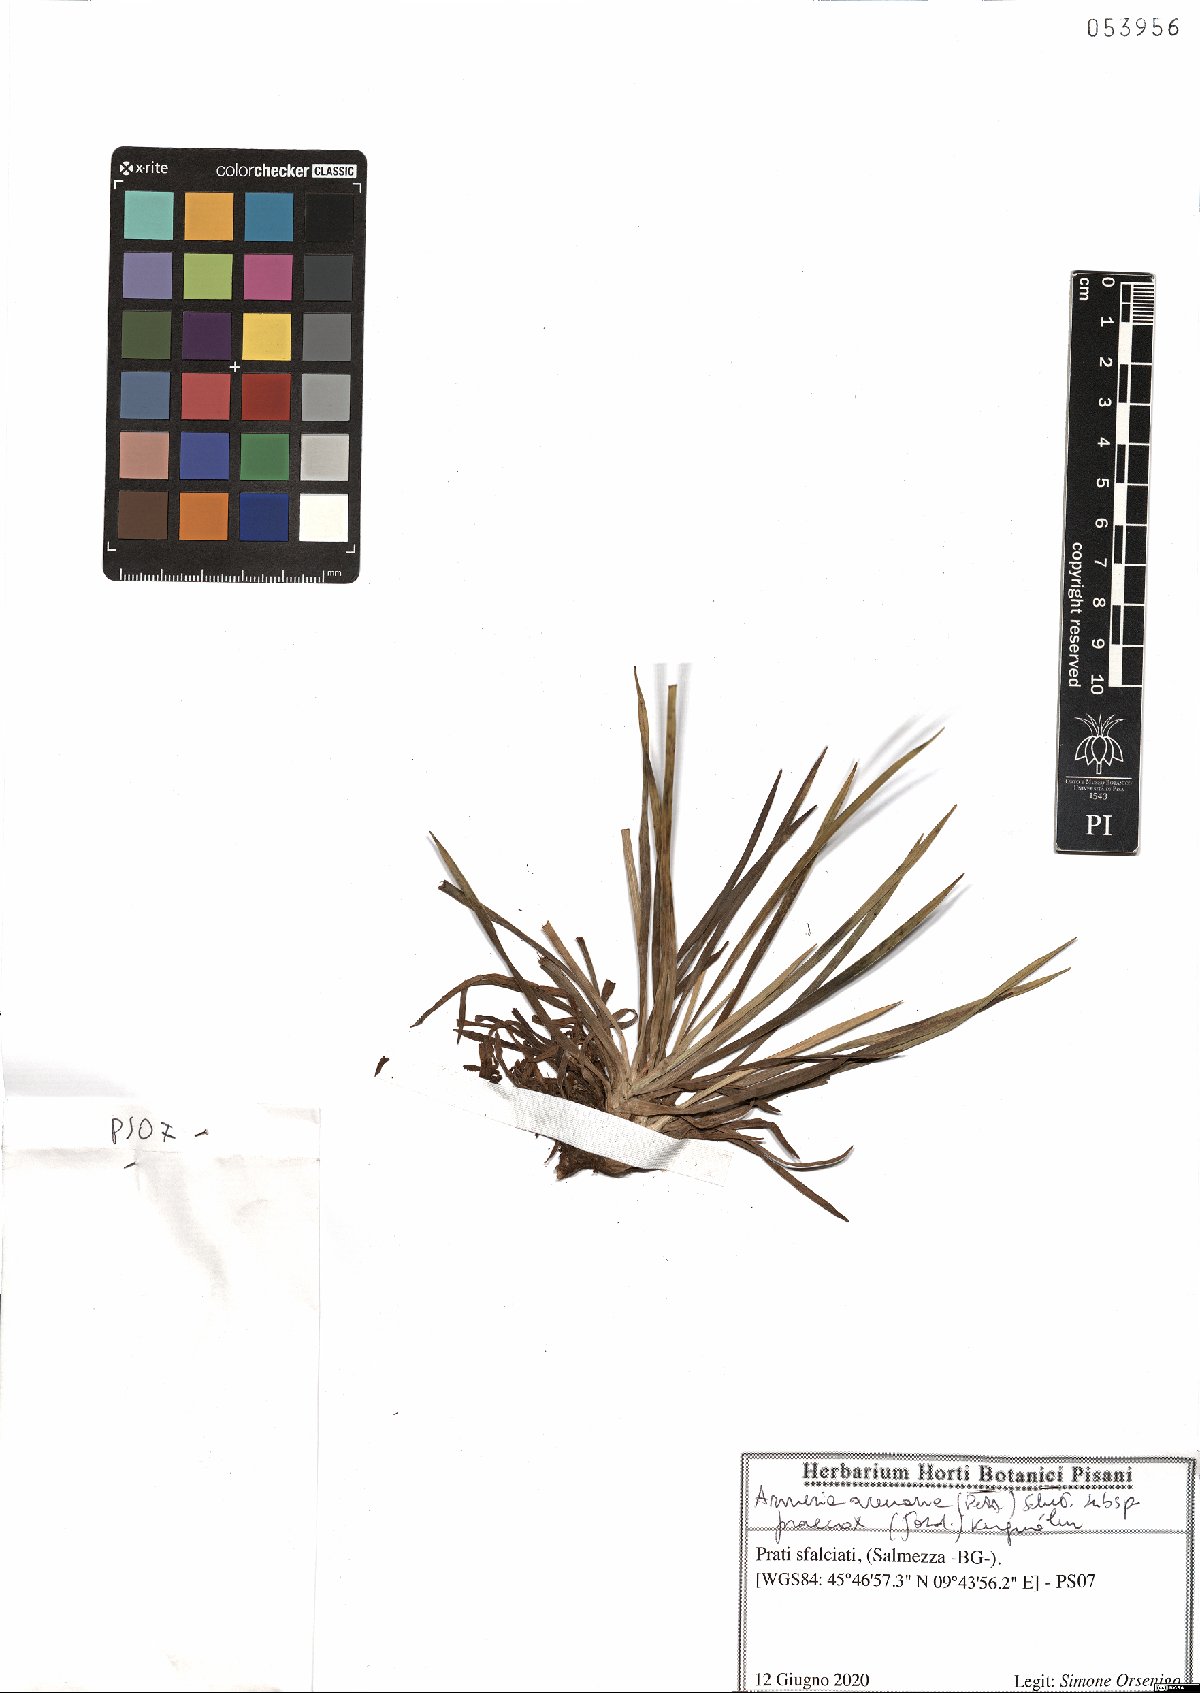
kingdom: Plantae
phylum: Tracheophyta
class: Magnoliopsida
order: Caryophyllales
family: Plumbaginaceae
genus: Armeria
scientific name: Armeria arenaria
